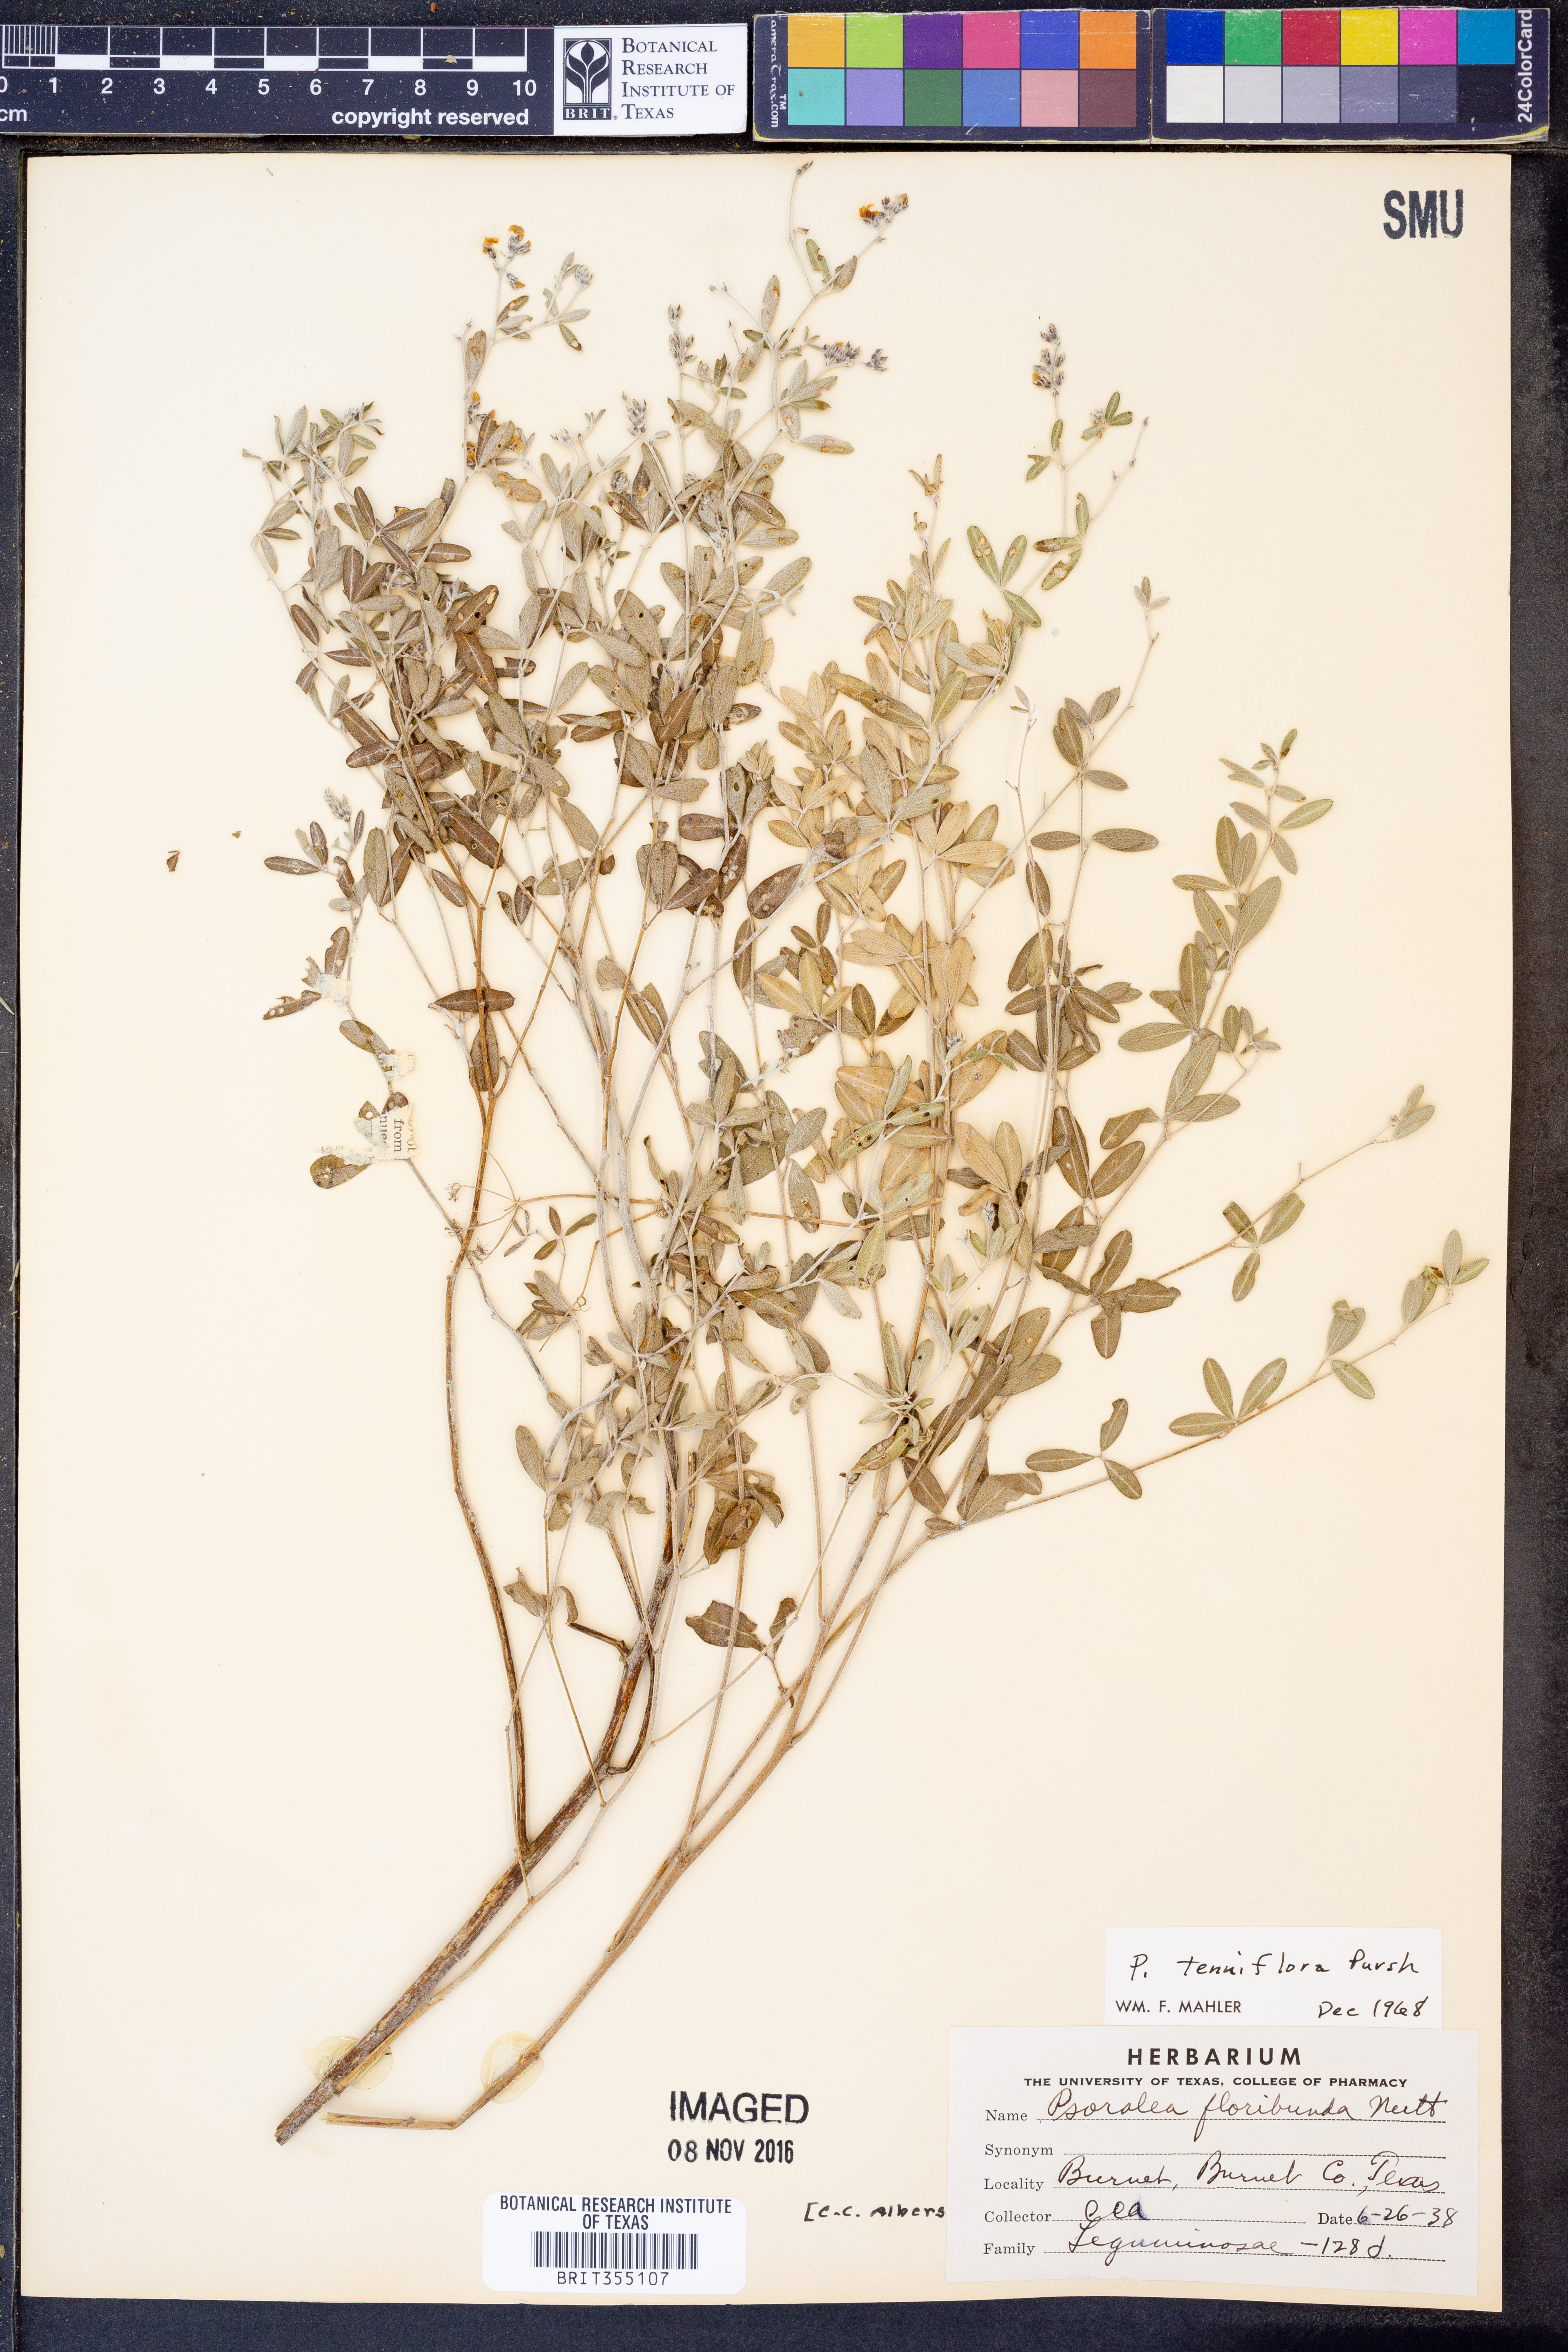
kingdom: Plantae
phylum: Tracheophyta
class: Magnoliopsida
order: Fabales
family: Fabaceae
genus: Pediomelum
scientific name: Pediomelum tenuiflorum
